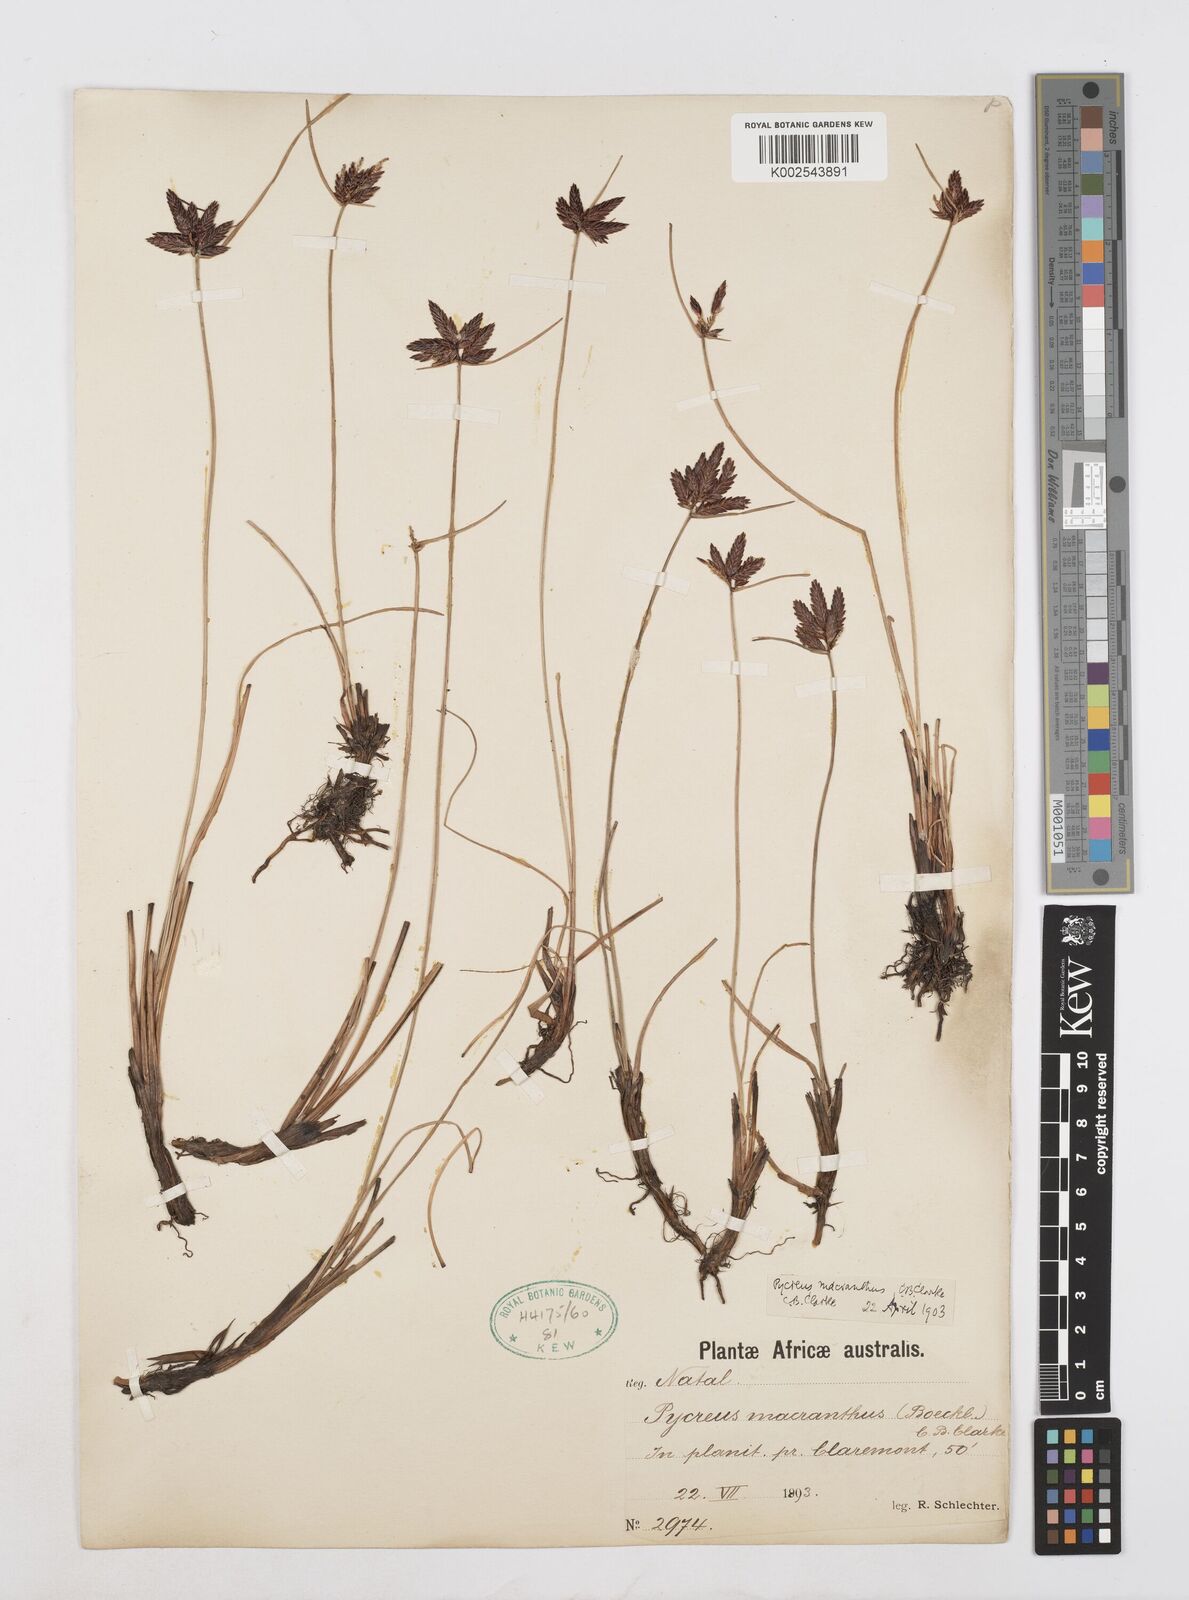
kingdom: Plantae
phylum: Tracheophyta
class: Liliopsida
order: Poales
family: Cyperaceae
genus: Cyperus
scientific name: Cyperus nigricans
